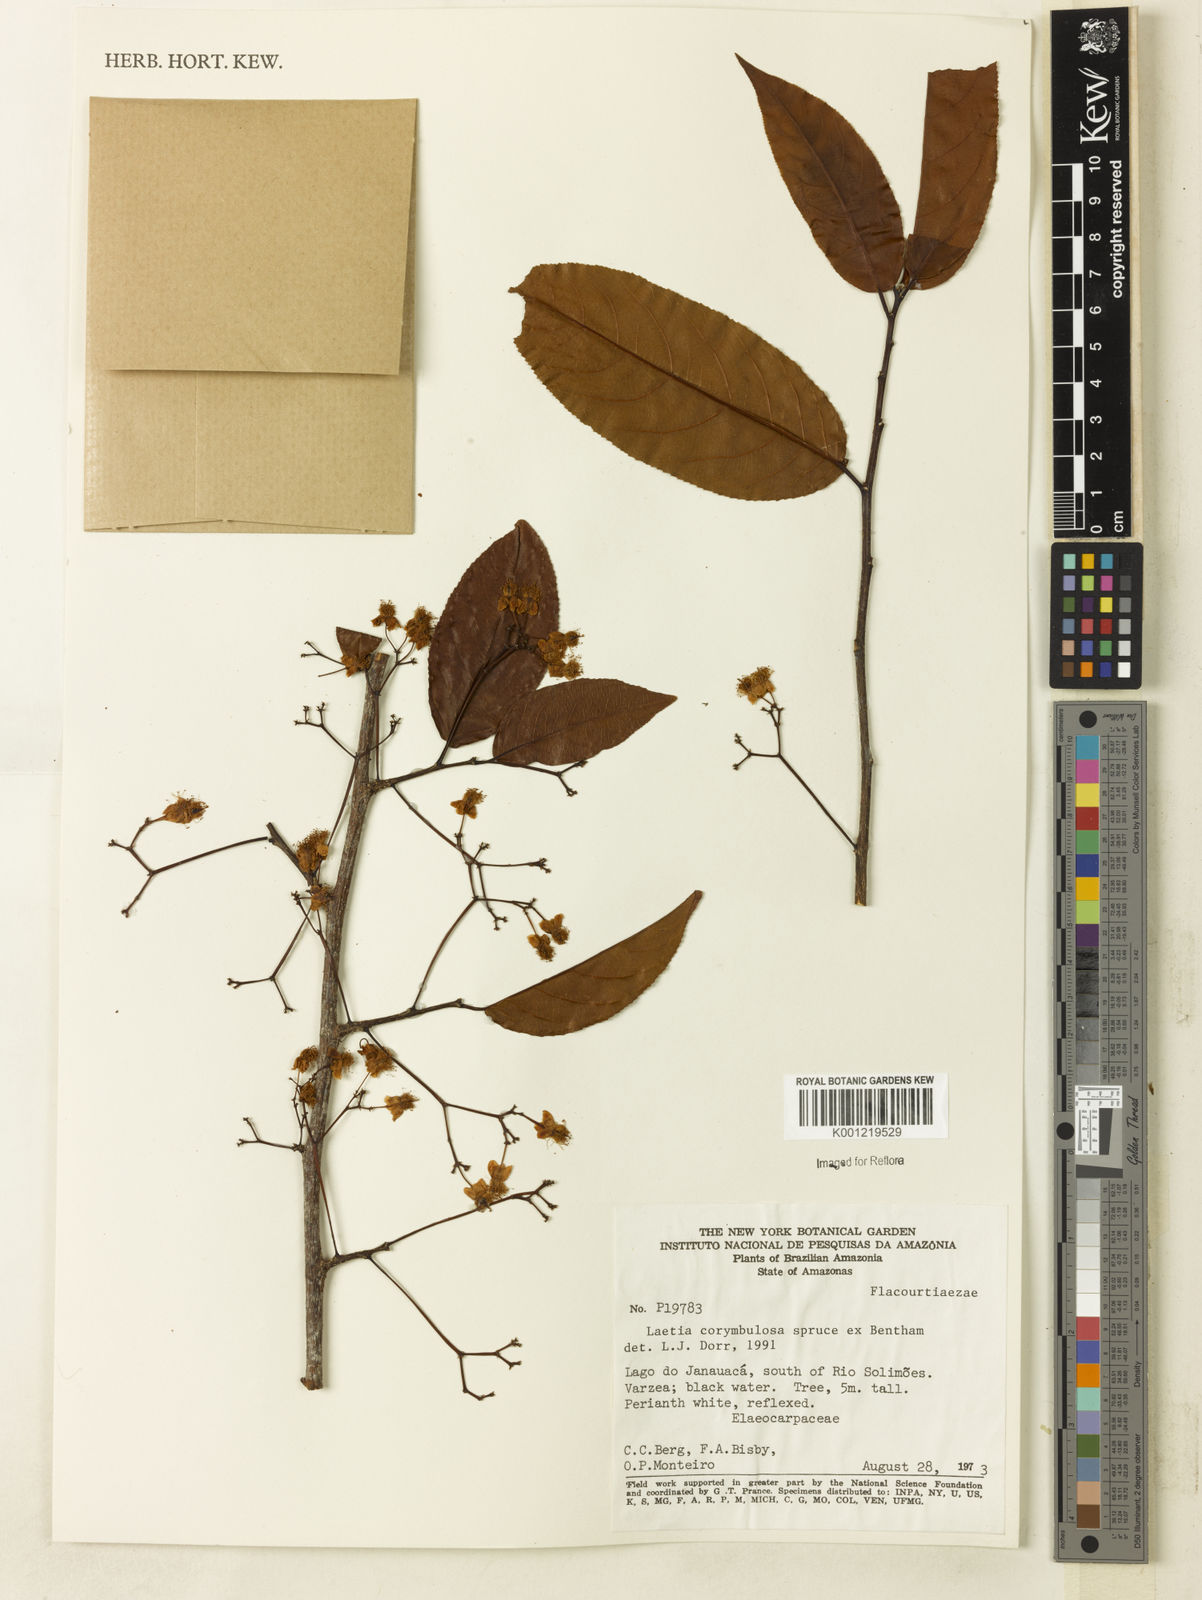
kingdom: Plantae
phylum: Tracheophyta
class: Magnoliopsida
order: Malpighiales
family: Salicaceae
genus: Casearia
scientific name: Casearia corymbulosa
